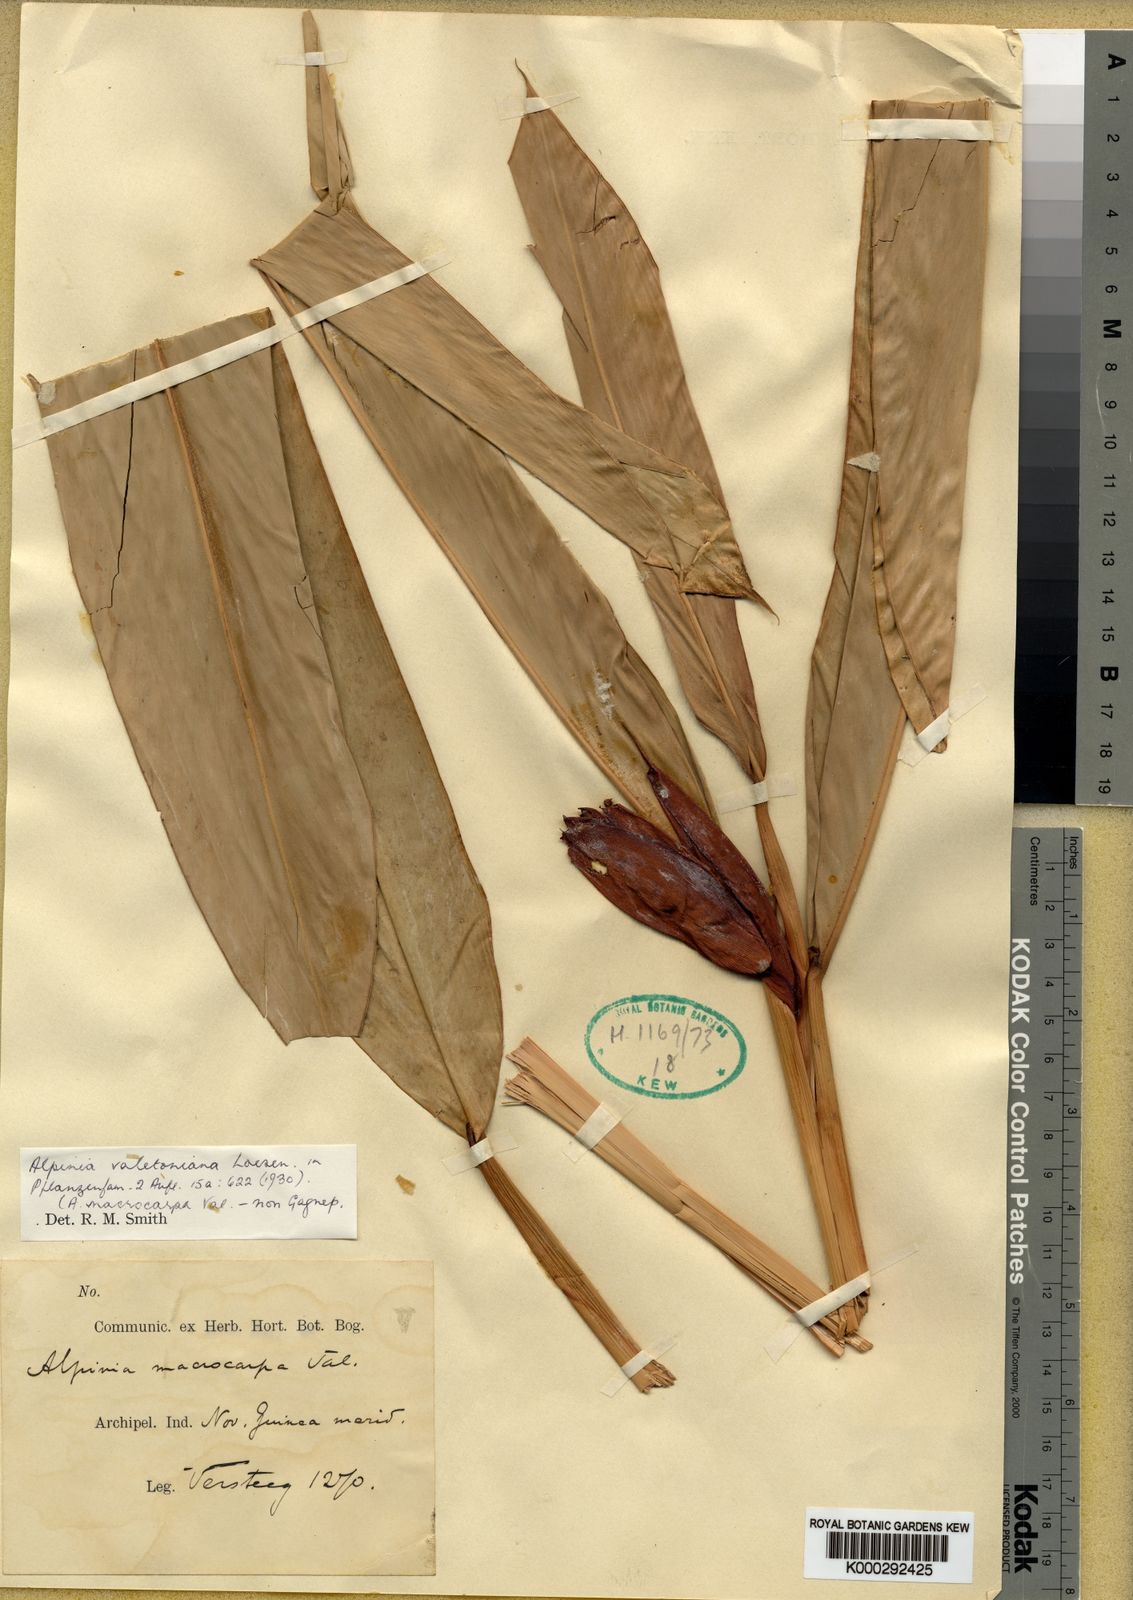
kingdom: Plantae
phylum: Tracheophyta
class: Liliopsida
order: Zingiberales
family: Zingiberaceae
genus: Alpinia
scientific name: Alpinia valetoniana
